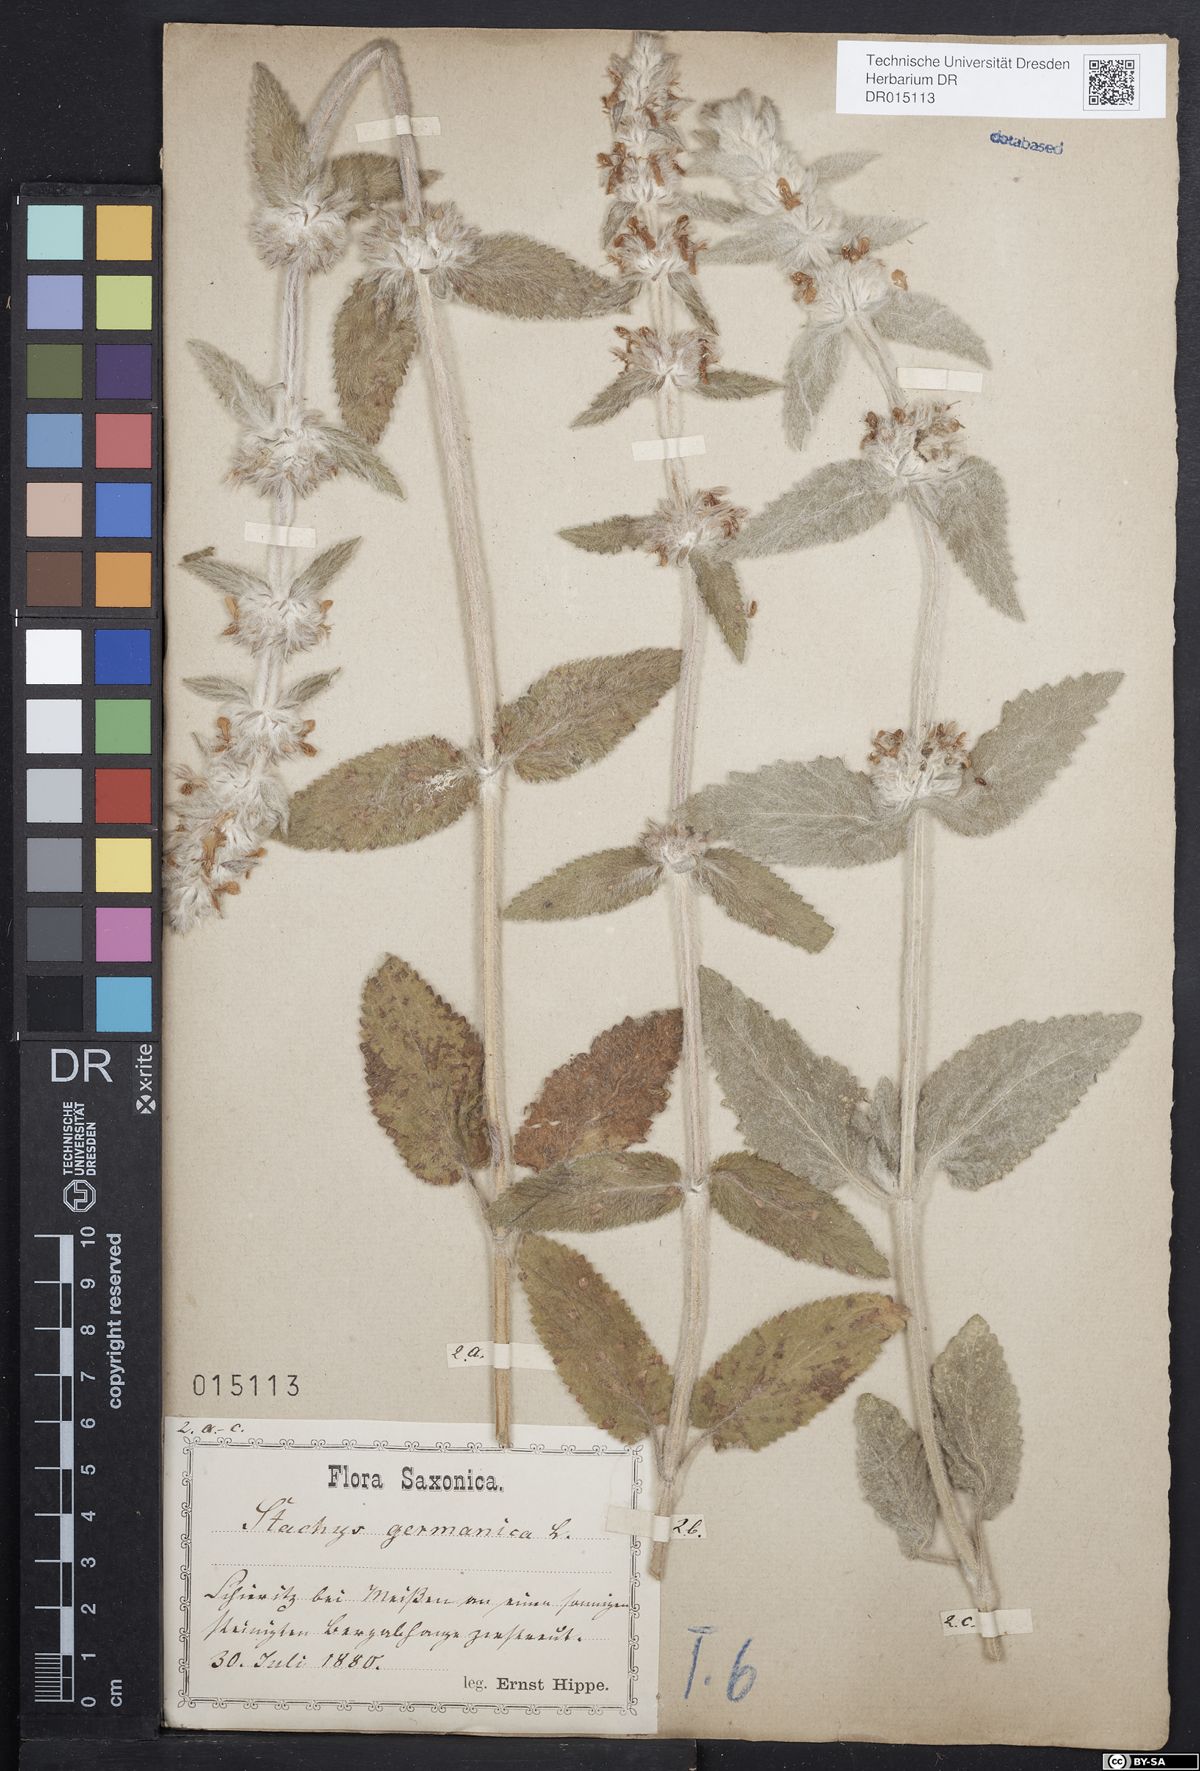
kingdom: Plantae
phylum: Tracheophyta
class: Magnoliopsida
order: Lamiales
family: Lamiaceae
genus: Stachys
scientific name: Stachys germanica
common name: Downy woundwort
